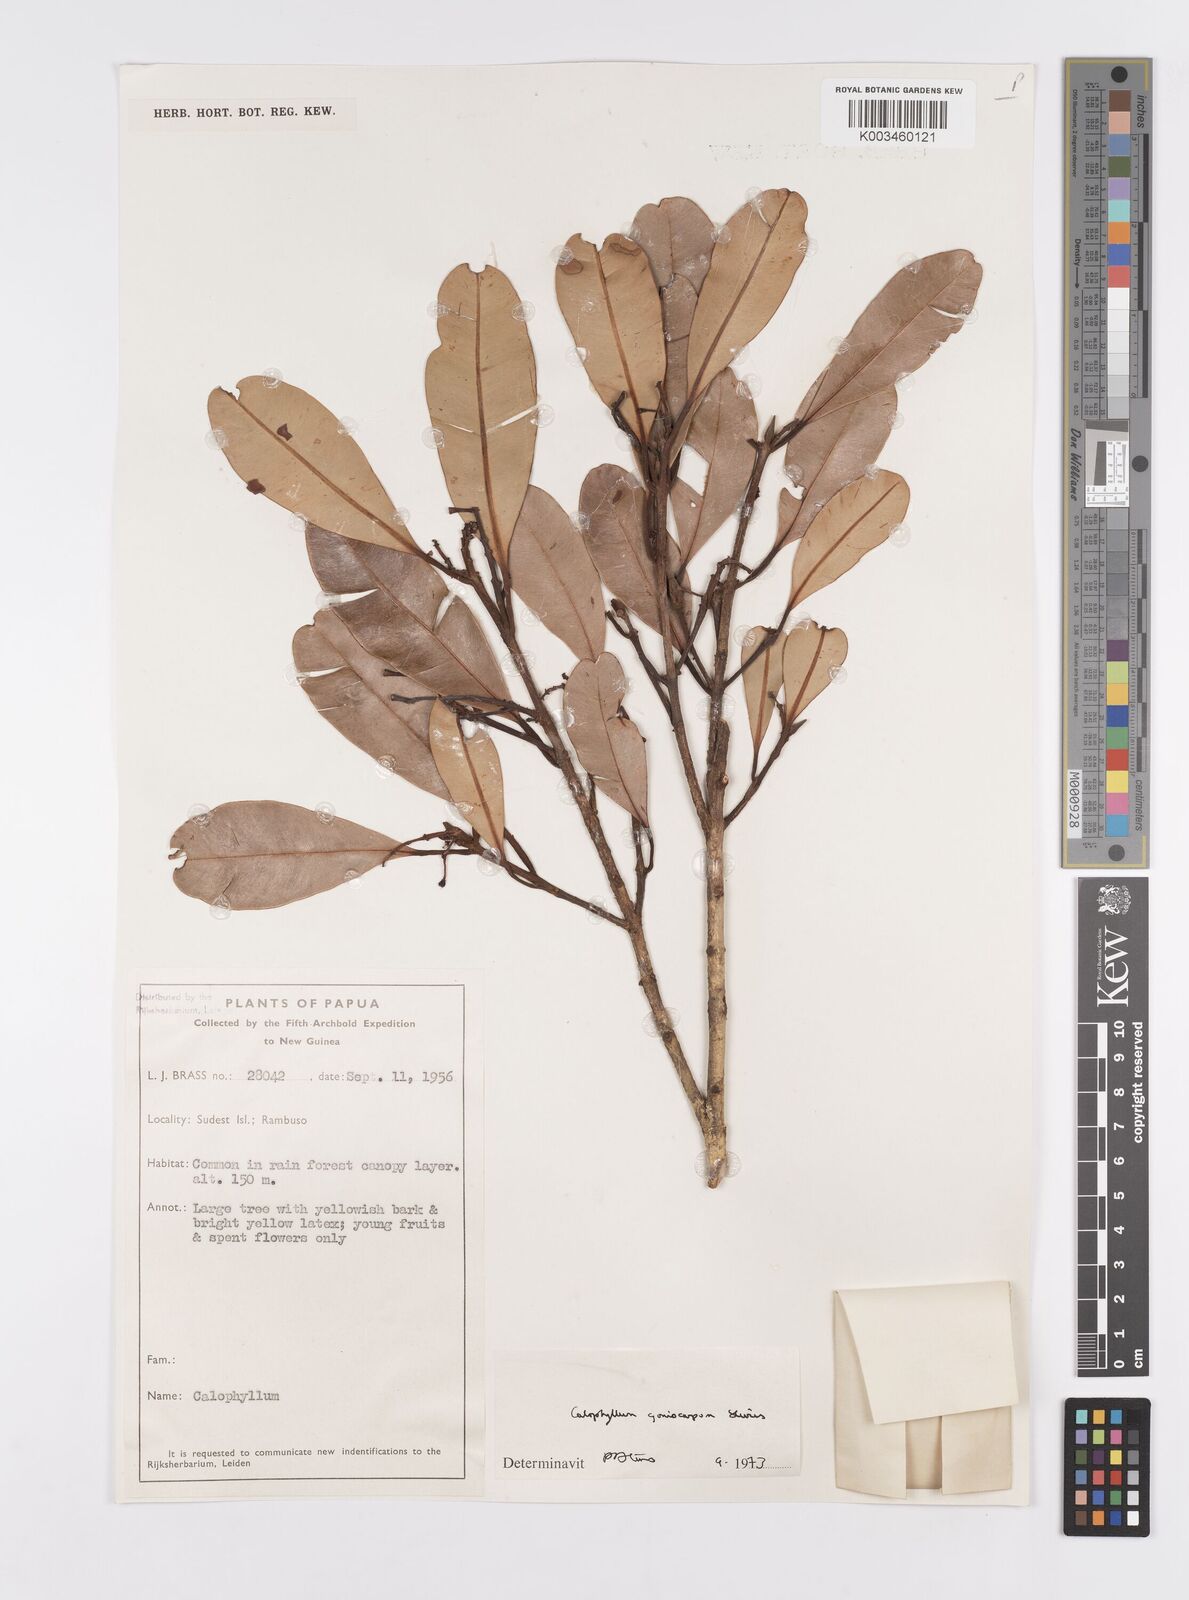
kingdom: Plantae
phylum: Tracheophyta
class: Magnoliopsida
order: Malpighiales
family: Calophyllaceae
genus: Calophyllum
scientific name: Calophyllum goniocarpum
